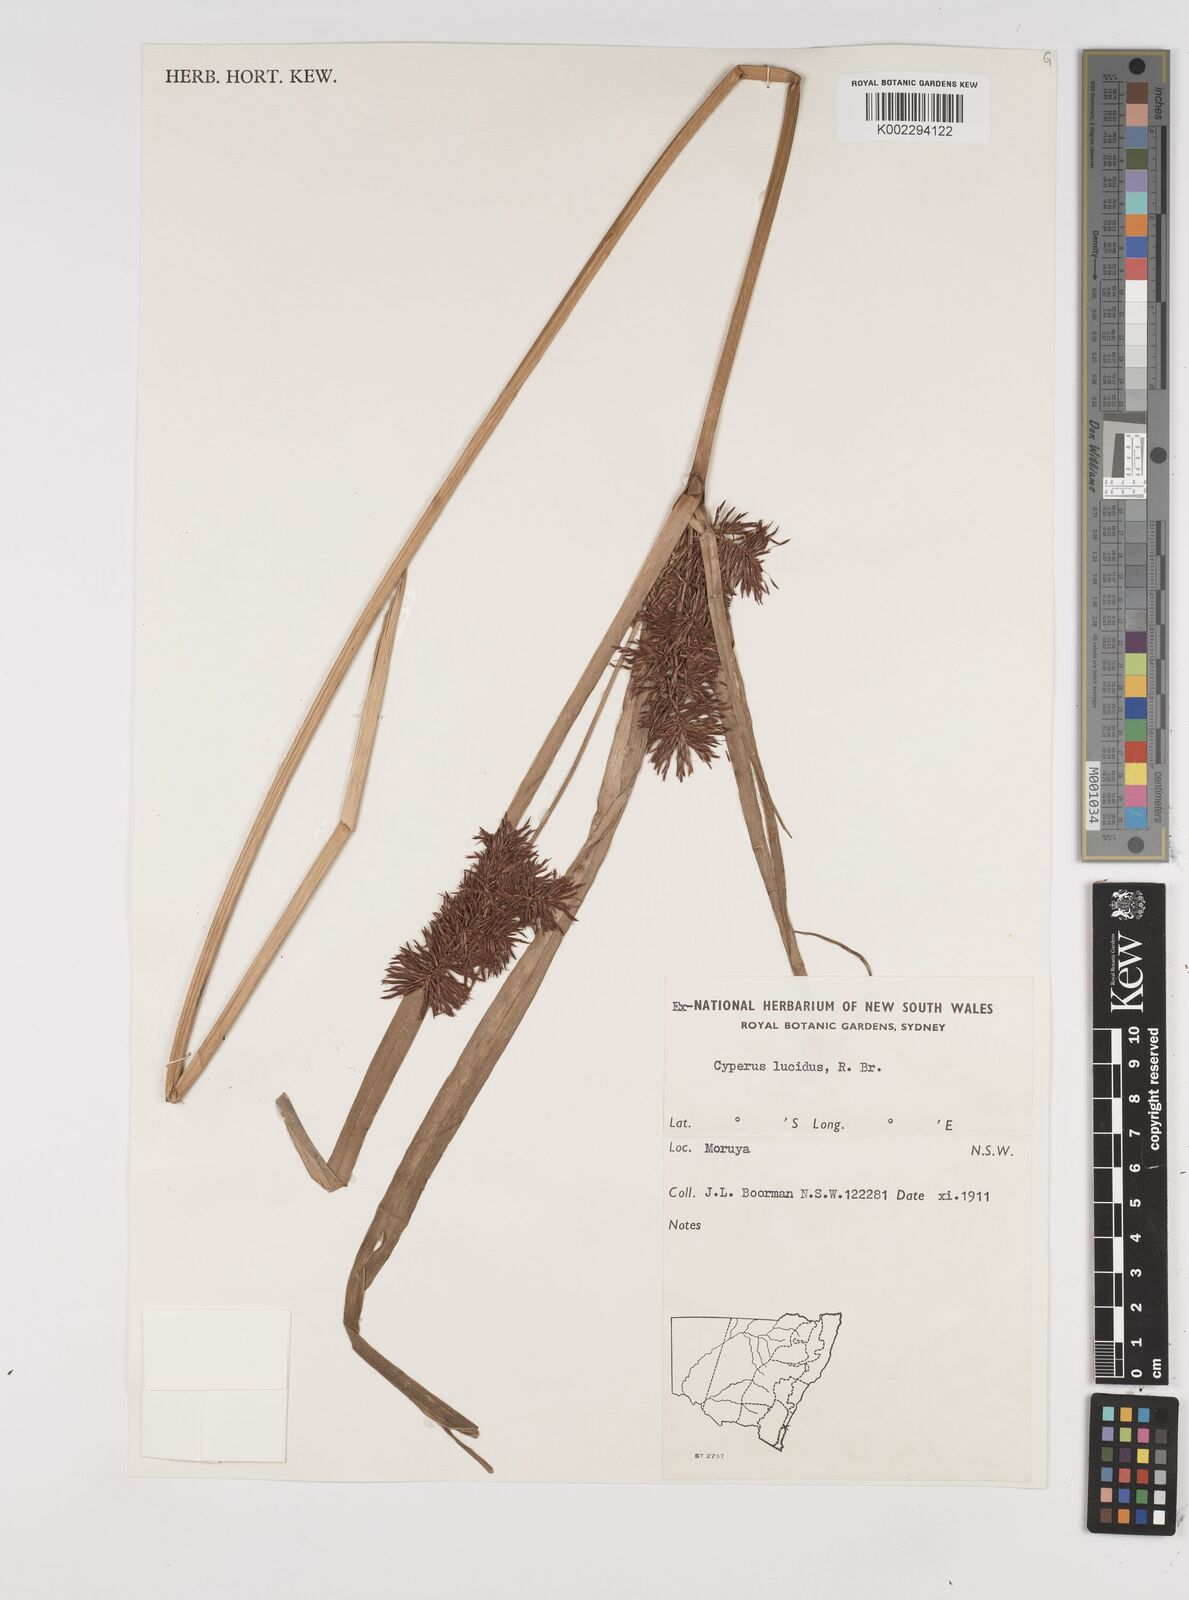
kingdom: Plantae
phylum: Tracheophyta
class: Liliopsida
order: Poales
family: Cyperaceae
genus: Cyperus
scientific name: Cyperus lucidus
